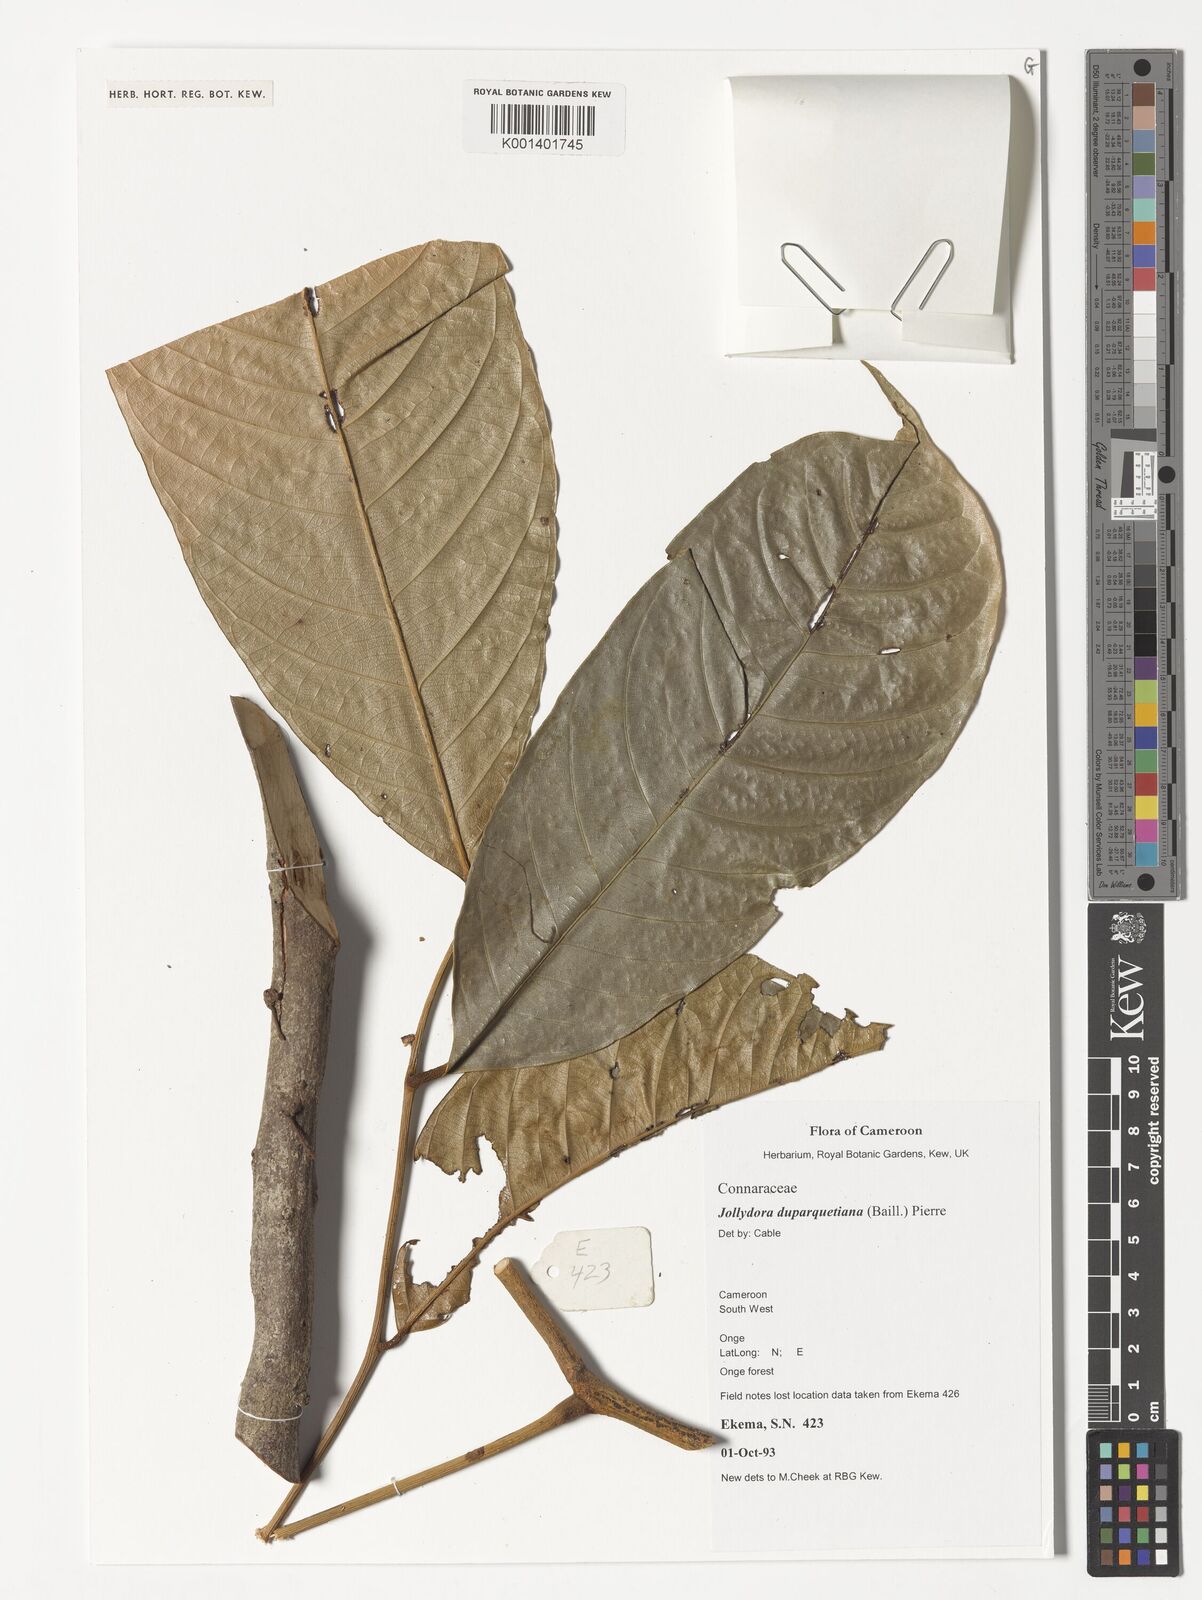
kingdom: Plantae
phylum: Tracheophyta
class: Magnoliopsida
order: Oxalidales
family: Connaraceae
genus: Jollydora
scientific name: Jollydora duparquetiana
